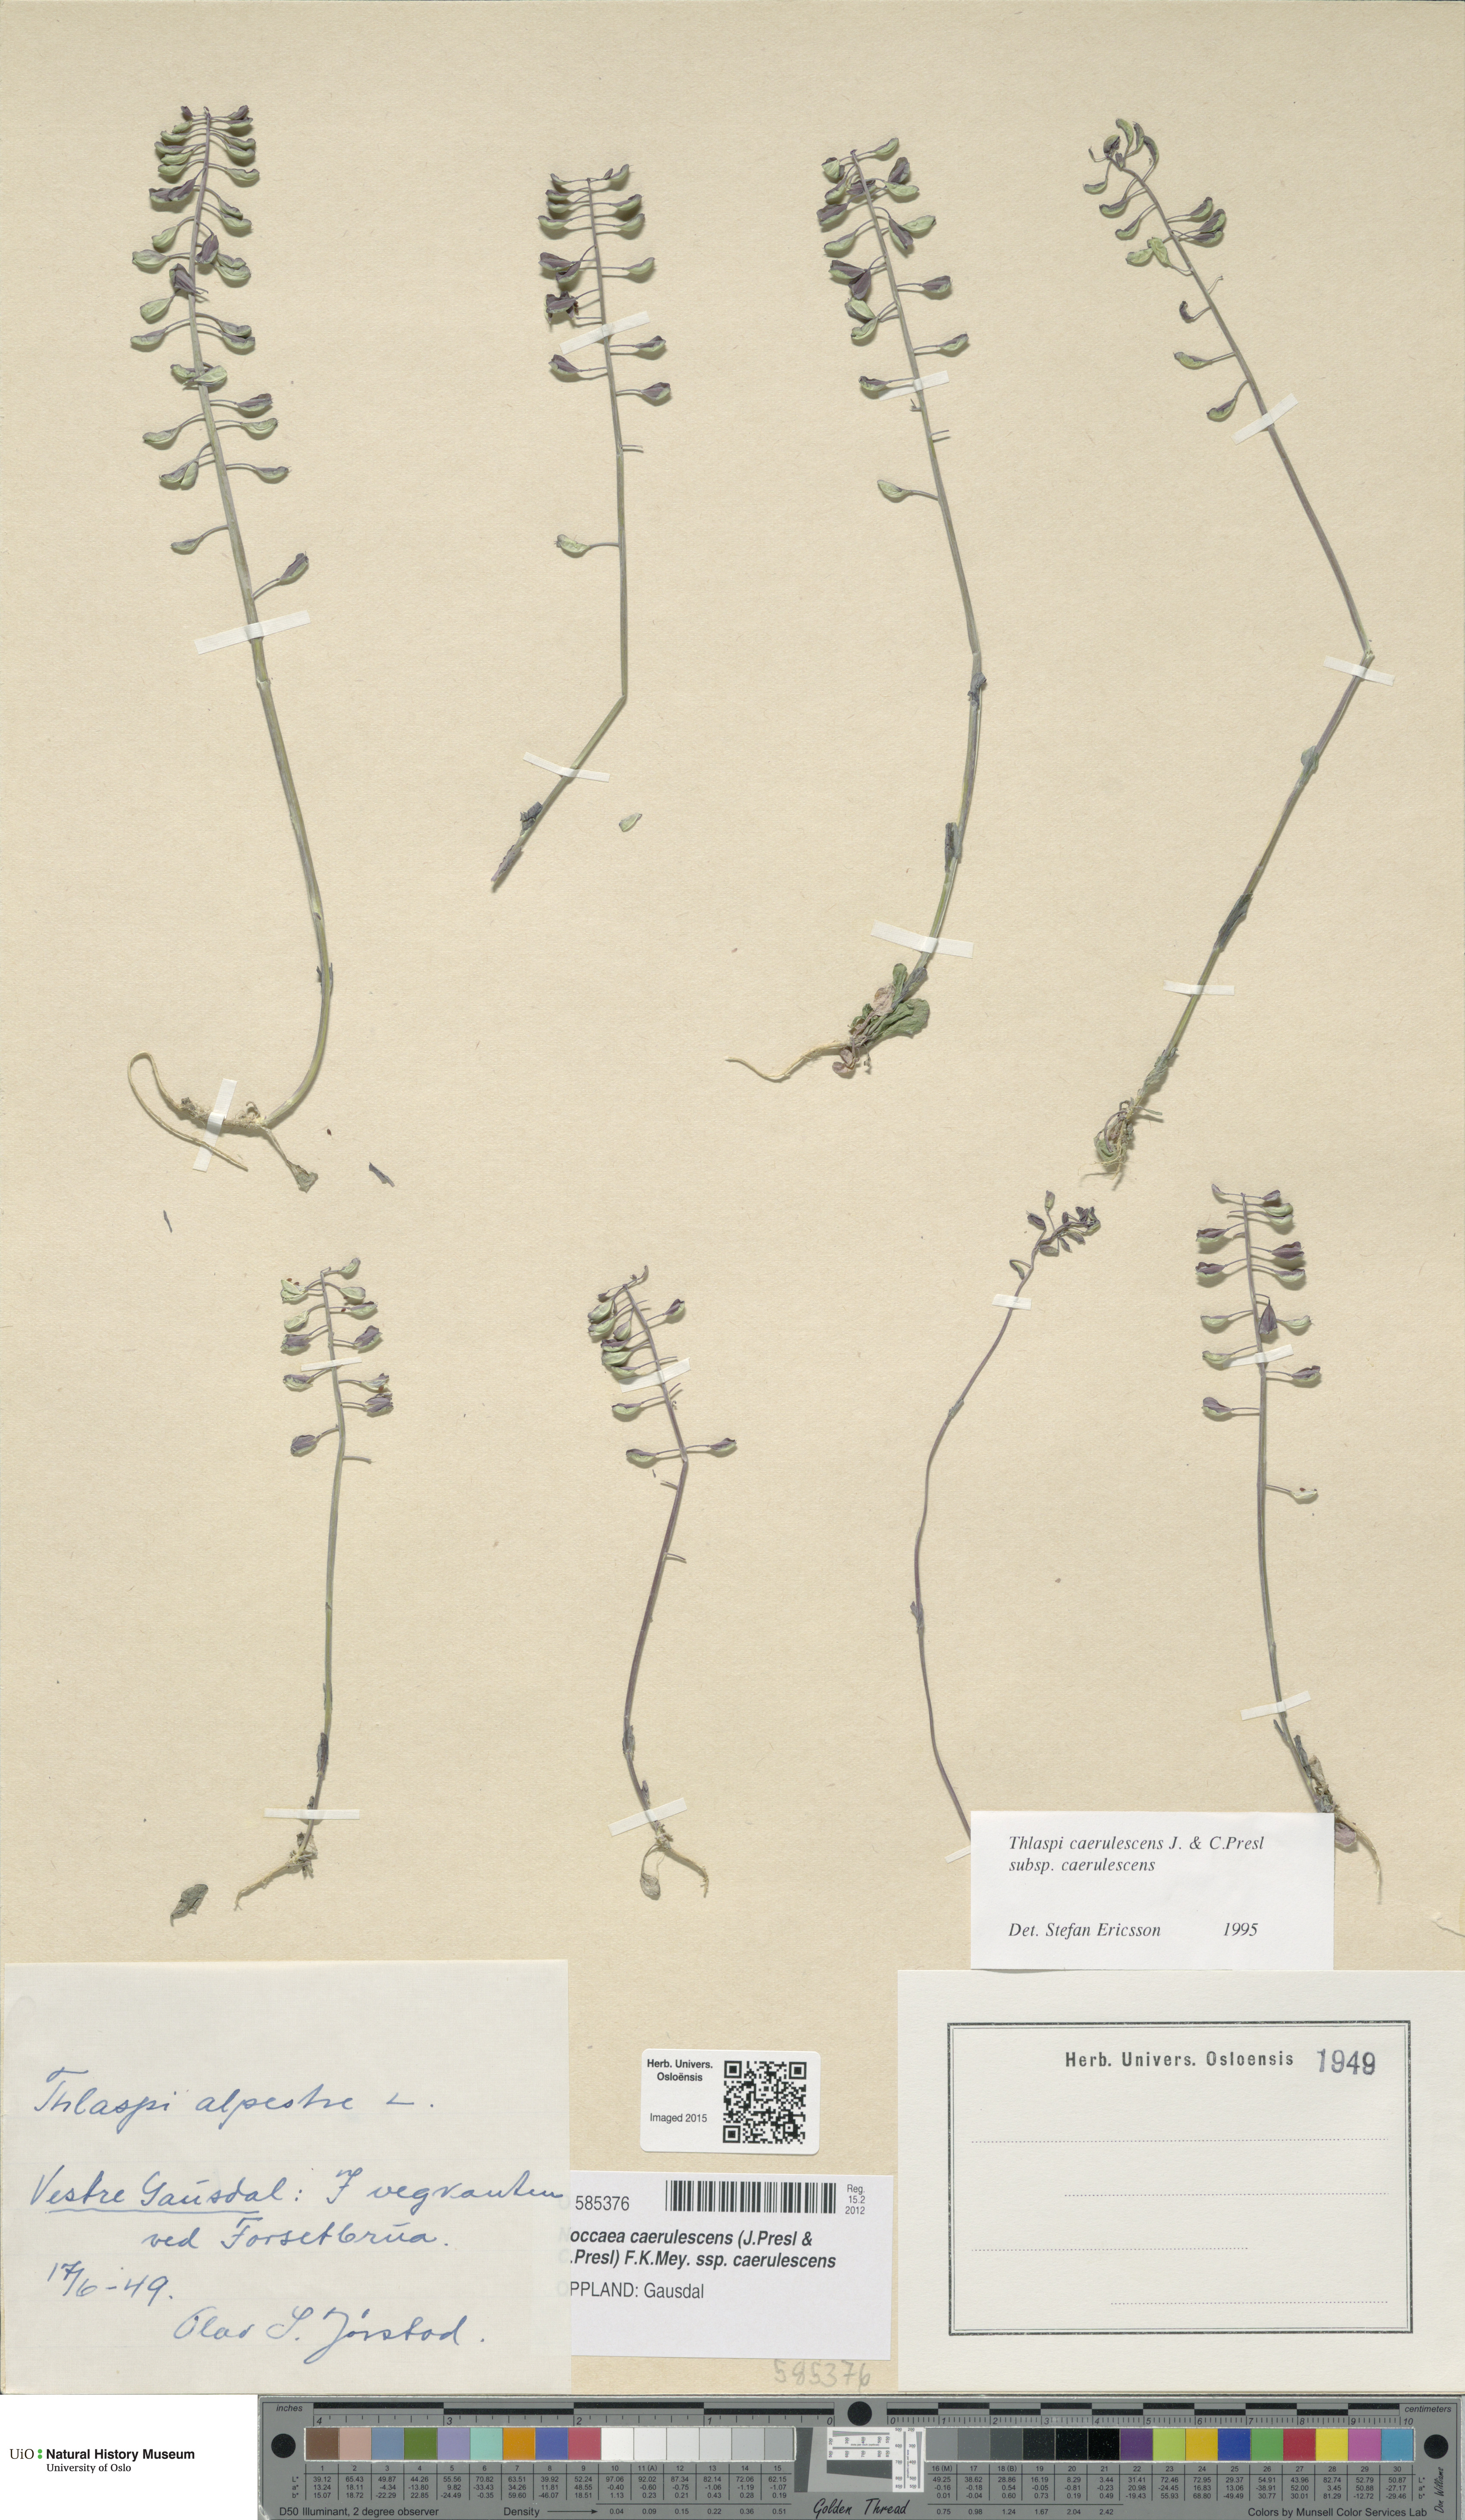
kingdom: Plantae
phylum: Tracheophyta
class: Magnoliopsida
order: Brassicales
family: Brassicaceae
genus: Noccaea
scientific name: Noccaea caerulescens
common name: Alpine pennycress
